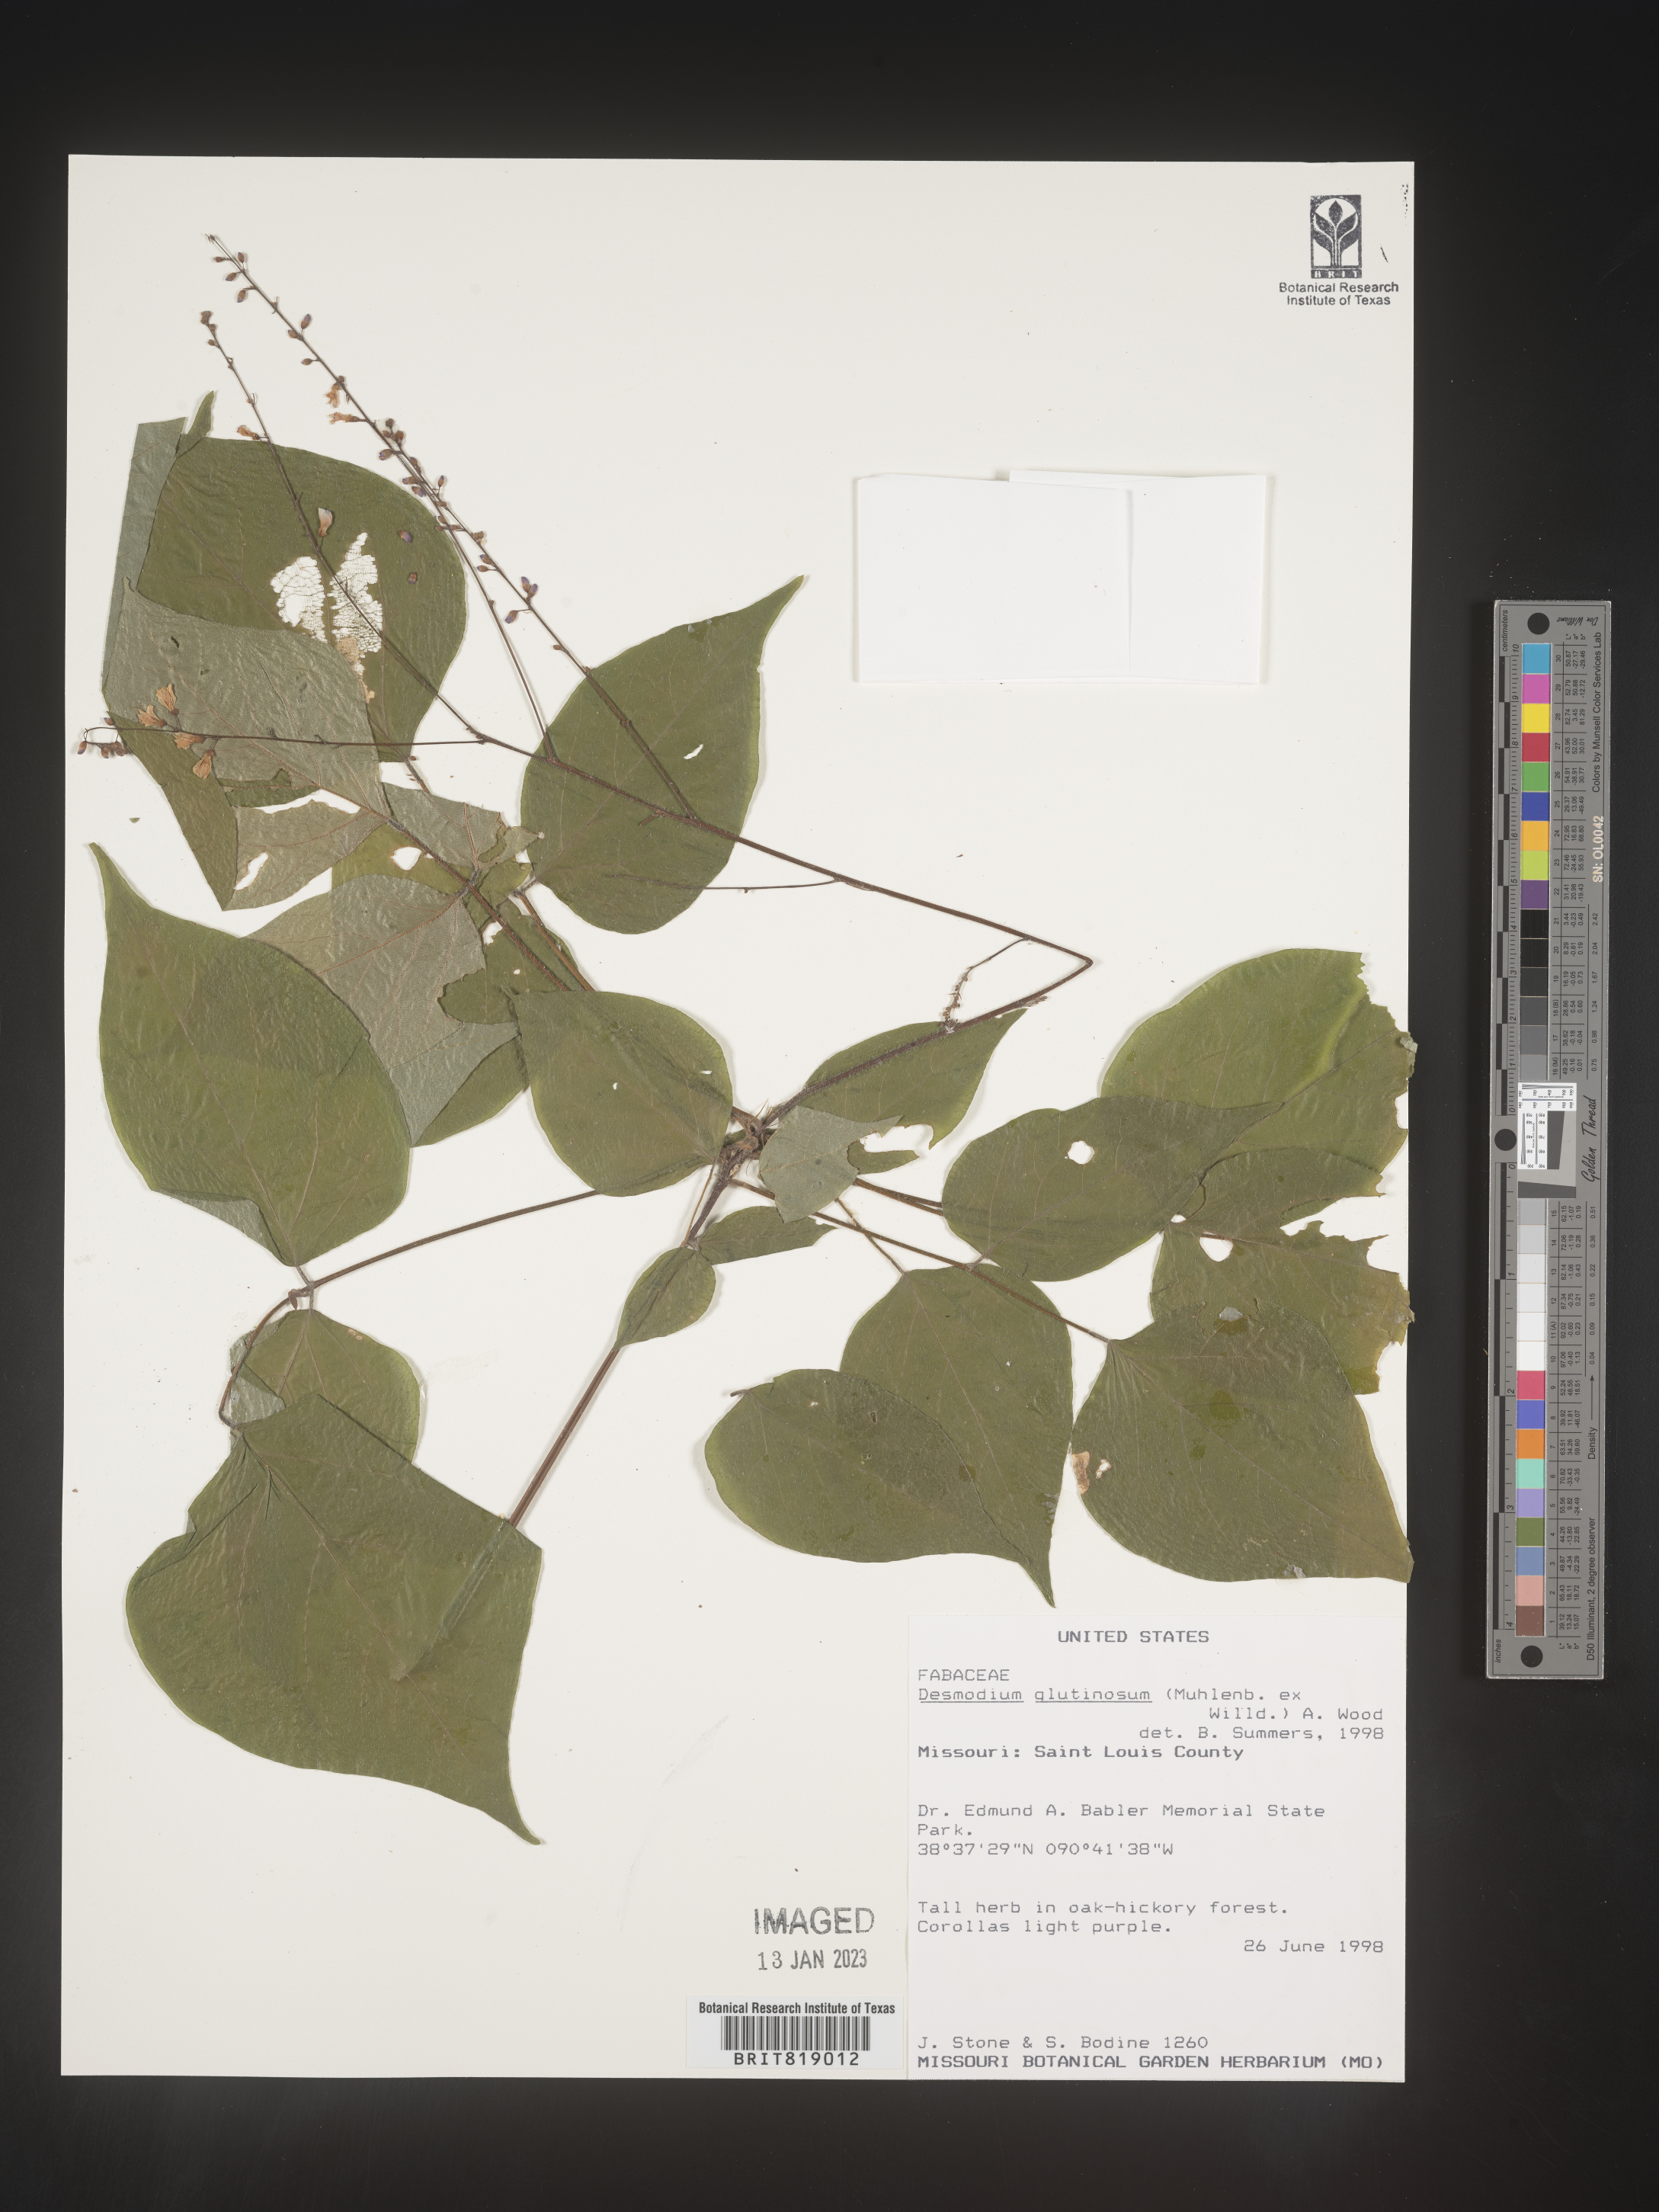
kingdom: Plantae
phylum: Tracheophyta
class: Magnoliopsida
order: Fabales
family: Fabaceae
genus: Hylodesmum
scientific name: Hylodesmum glutinosum
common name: Clustered-leaved tick-trefoil
